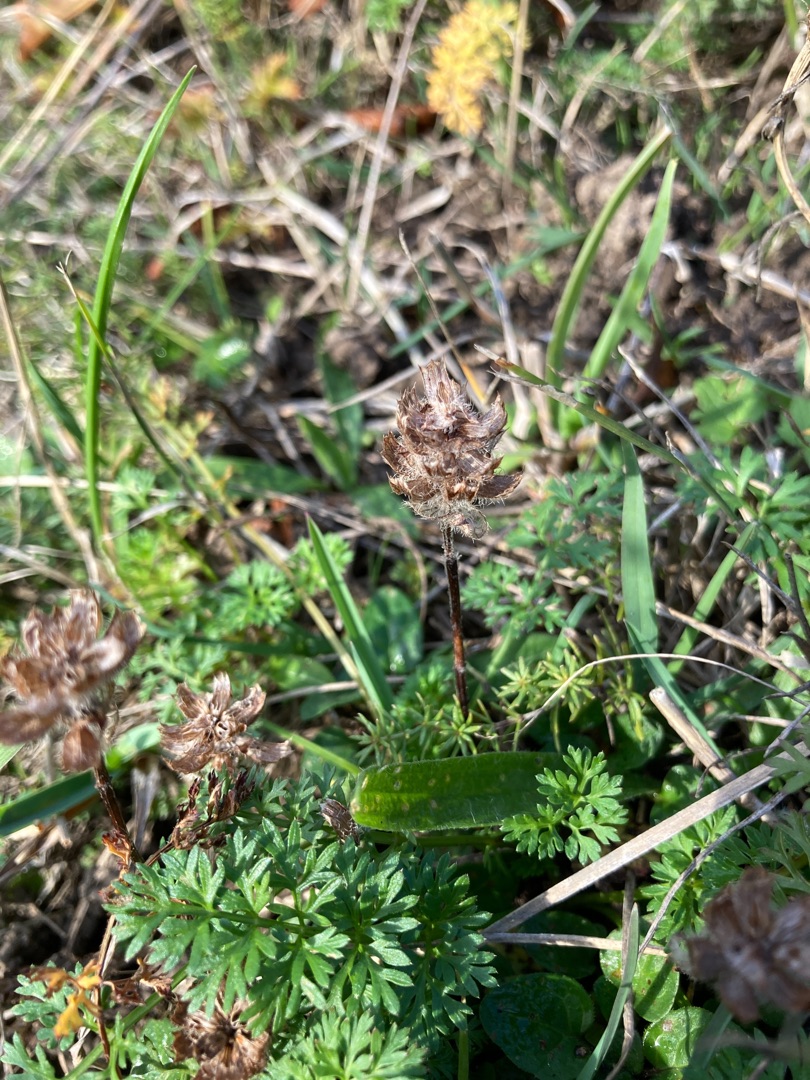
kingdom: Plantae
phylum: Tracheophyta
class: Magnoliopsida
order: Lamiales
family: Lamiaceae
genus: Prunella
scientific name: Prunella vulgaris
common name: Almindelig brunelle
